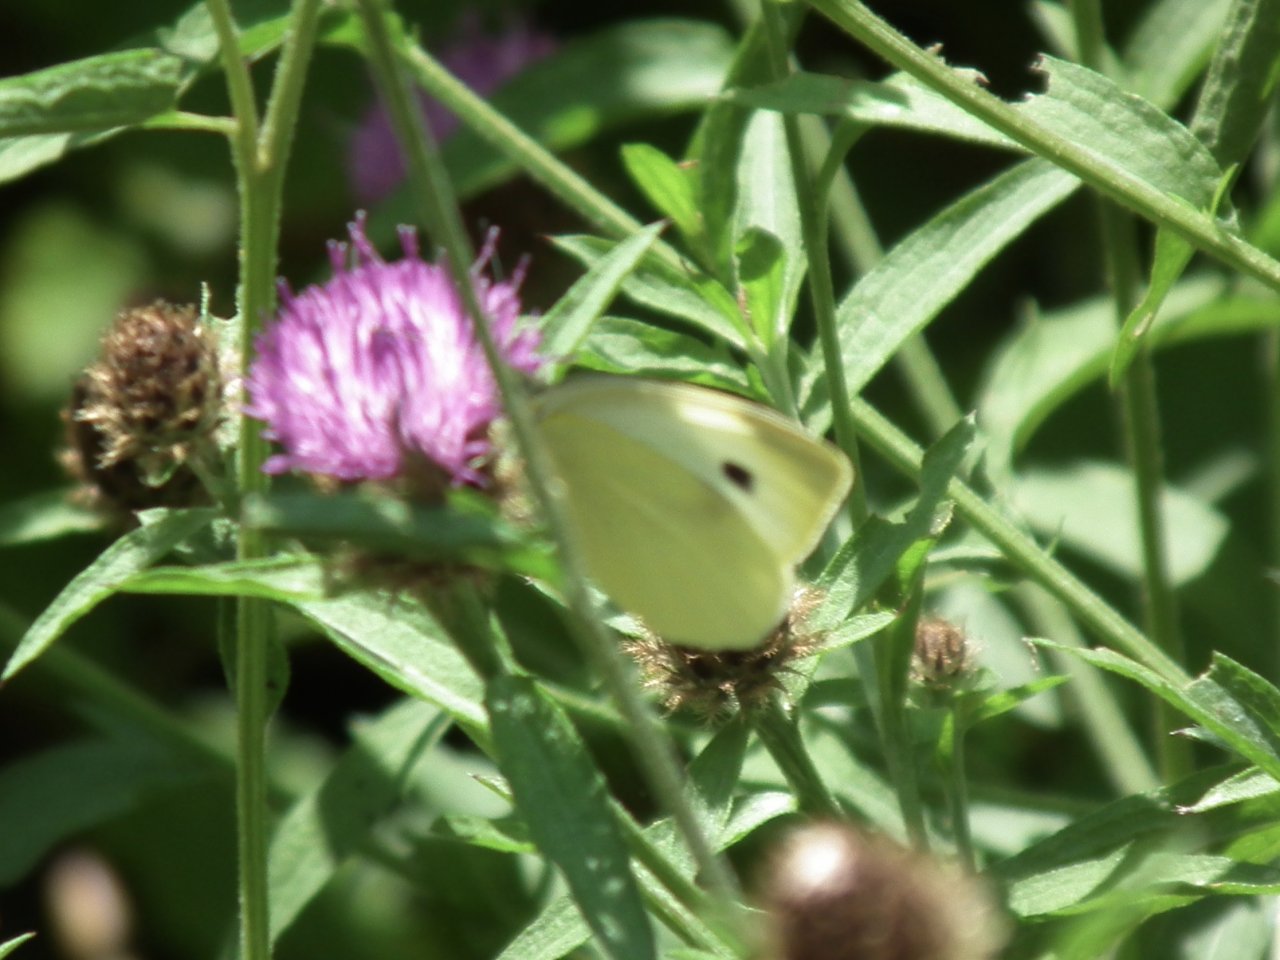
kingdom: Animalia
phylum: Arthropoda
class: Insecta
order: Lepidoptera
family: Pieridae
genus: Pieris
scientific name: Pieris rapae
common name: Cabbage White
